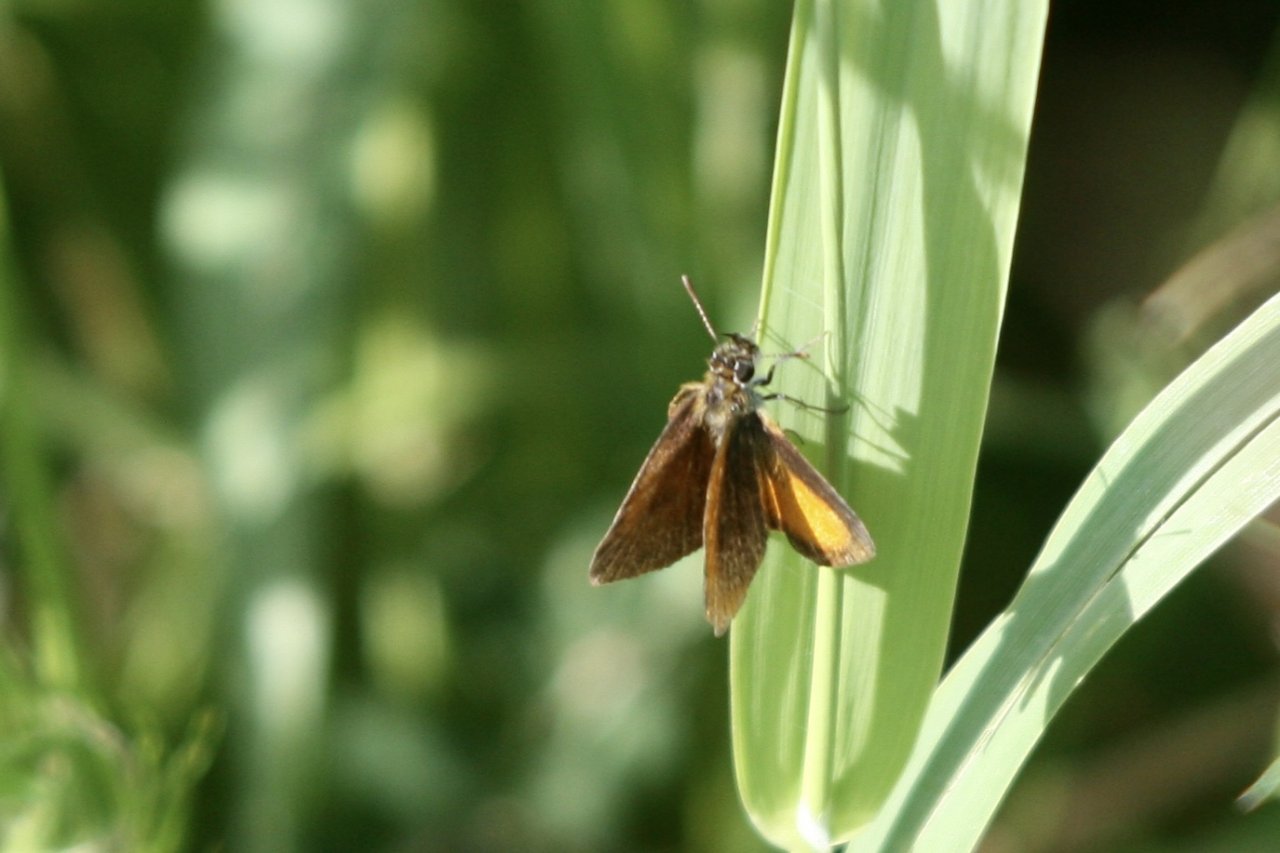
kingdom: Animalia
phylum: Arthropoda
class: Insecta
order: Lepidoptera
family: Hesperiidae
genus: Ancyloxypha
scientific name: Ancyloxypha numitor
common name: Least Skipper
